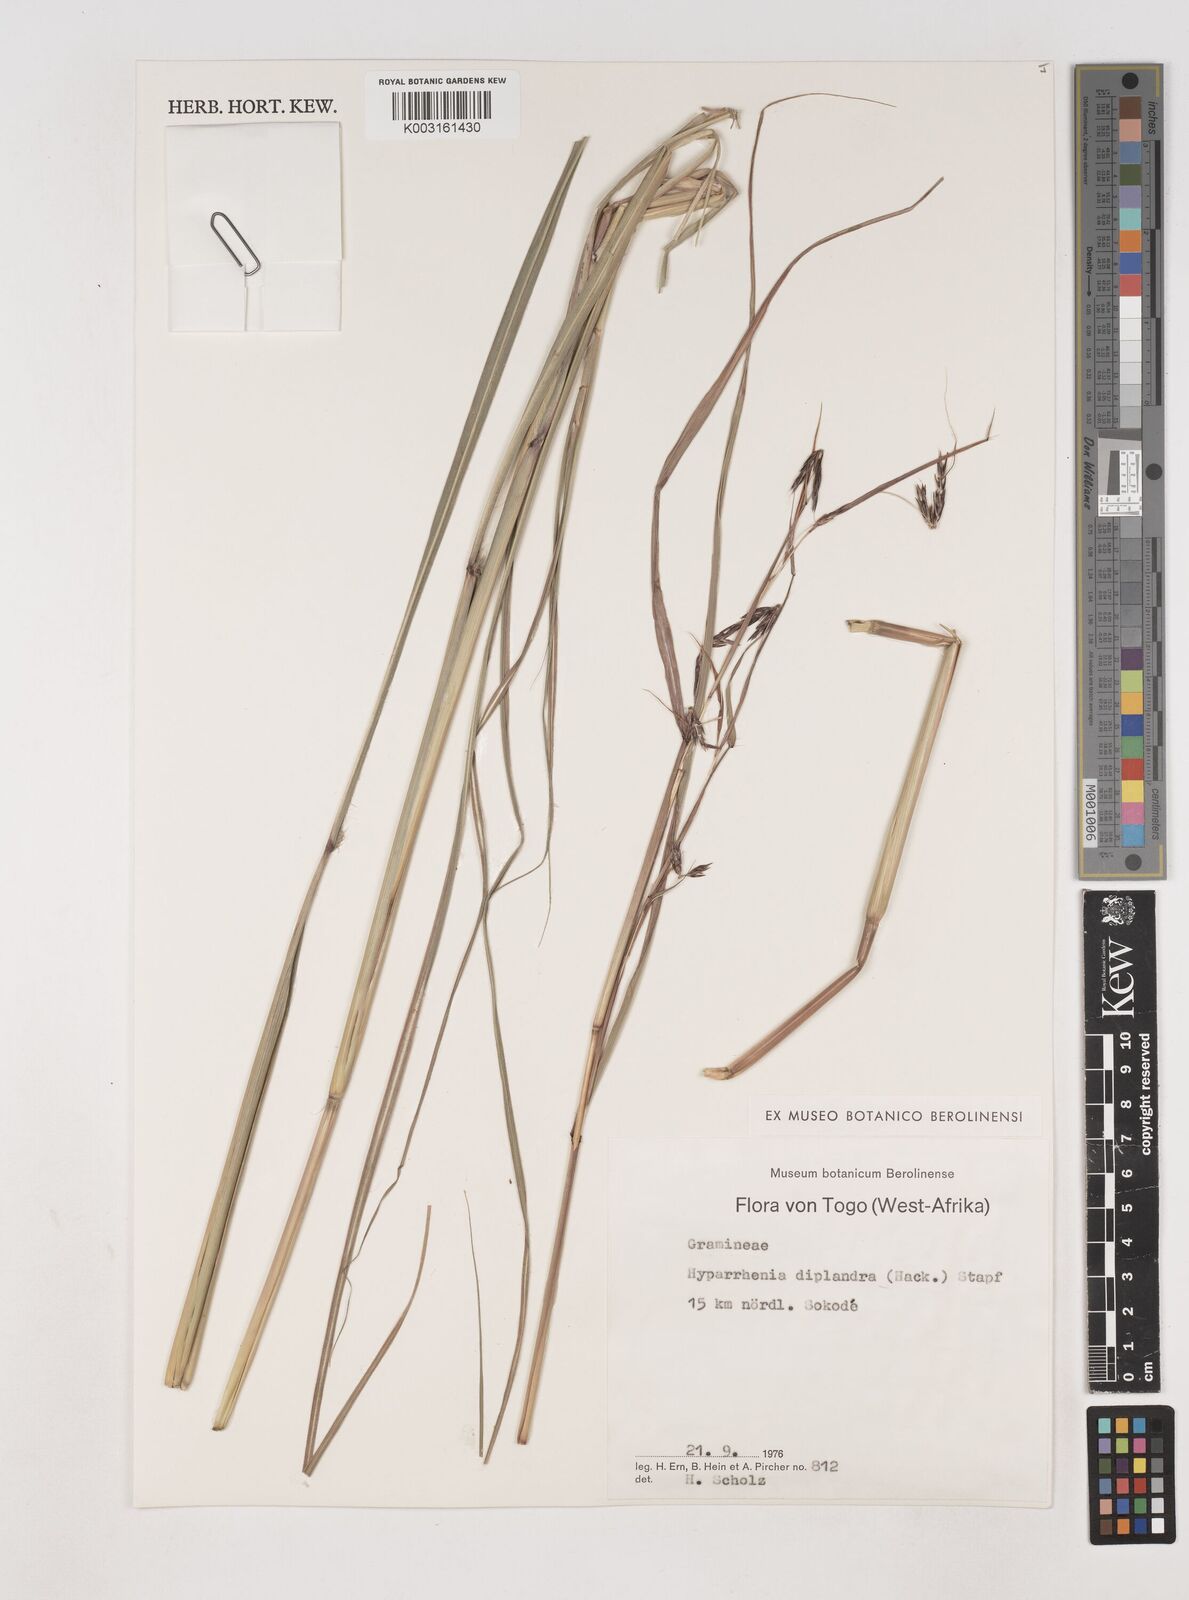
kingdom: Plantae
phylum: Tracheophyta
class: Liliopsida
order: Poales
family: Poaceae
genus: Hyparrhenia
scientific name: Hyparrhenia diplandra
